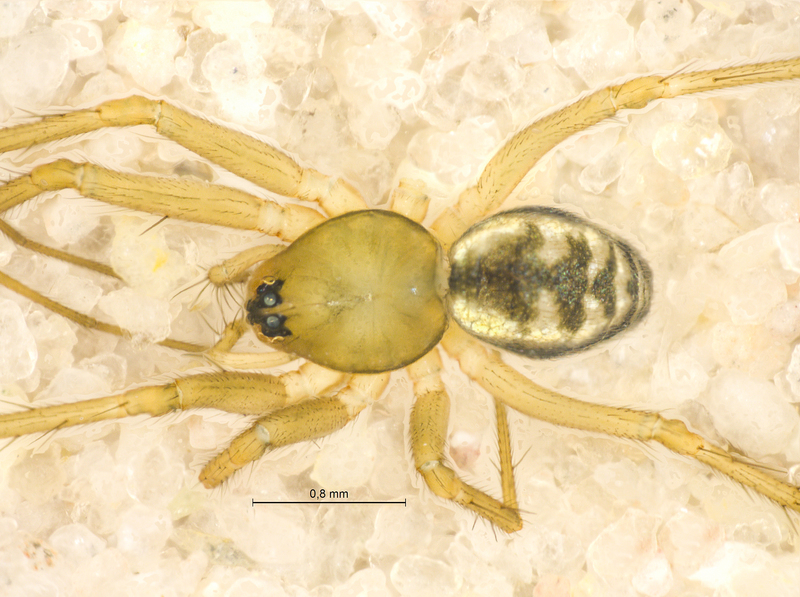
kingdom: Animalia
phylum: Arthropoda
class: Arachnida
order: Araneae
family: Linyphiidae
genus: Tenuiphantes
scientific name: Tenuiphantes alacris
